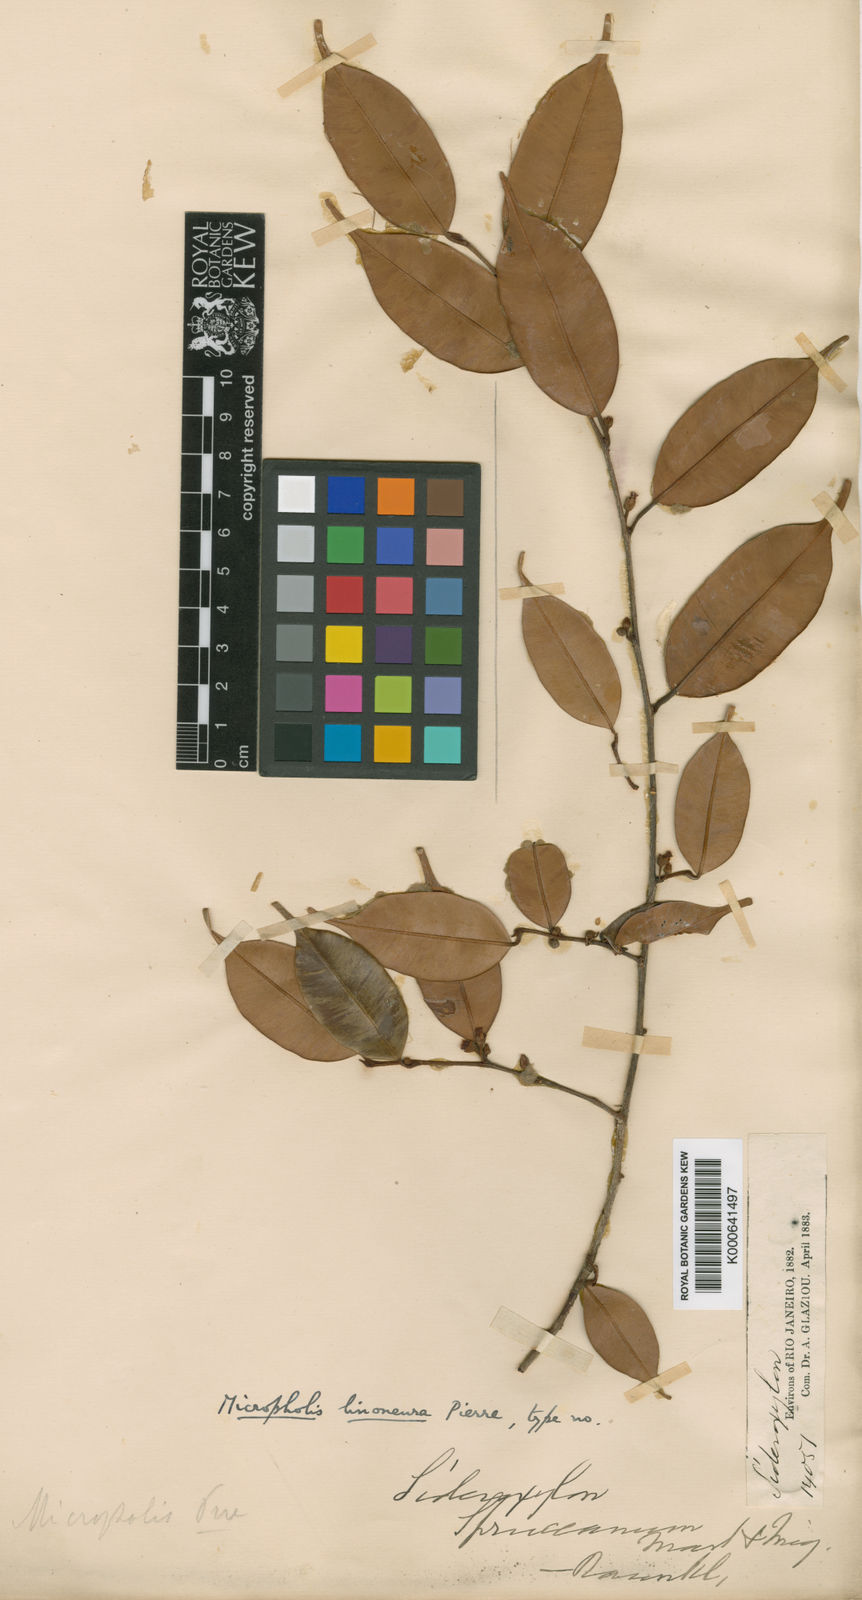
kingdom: Plantae
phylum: Tracheophyta
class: Magnoliopsida
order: Ericales
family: Sapotaceae
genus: Micropholis
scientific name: Micropholis humboldtiana
